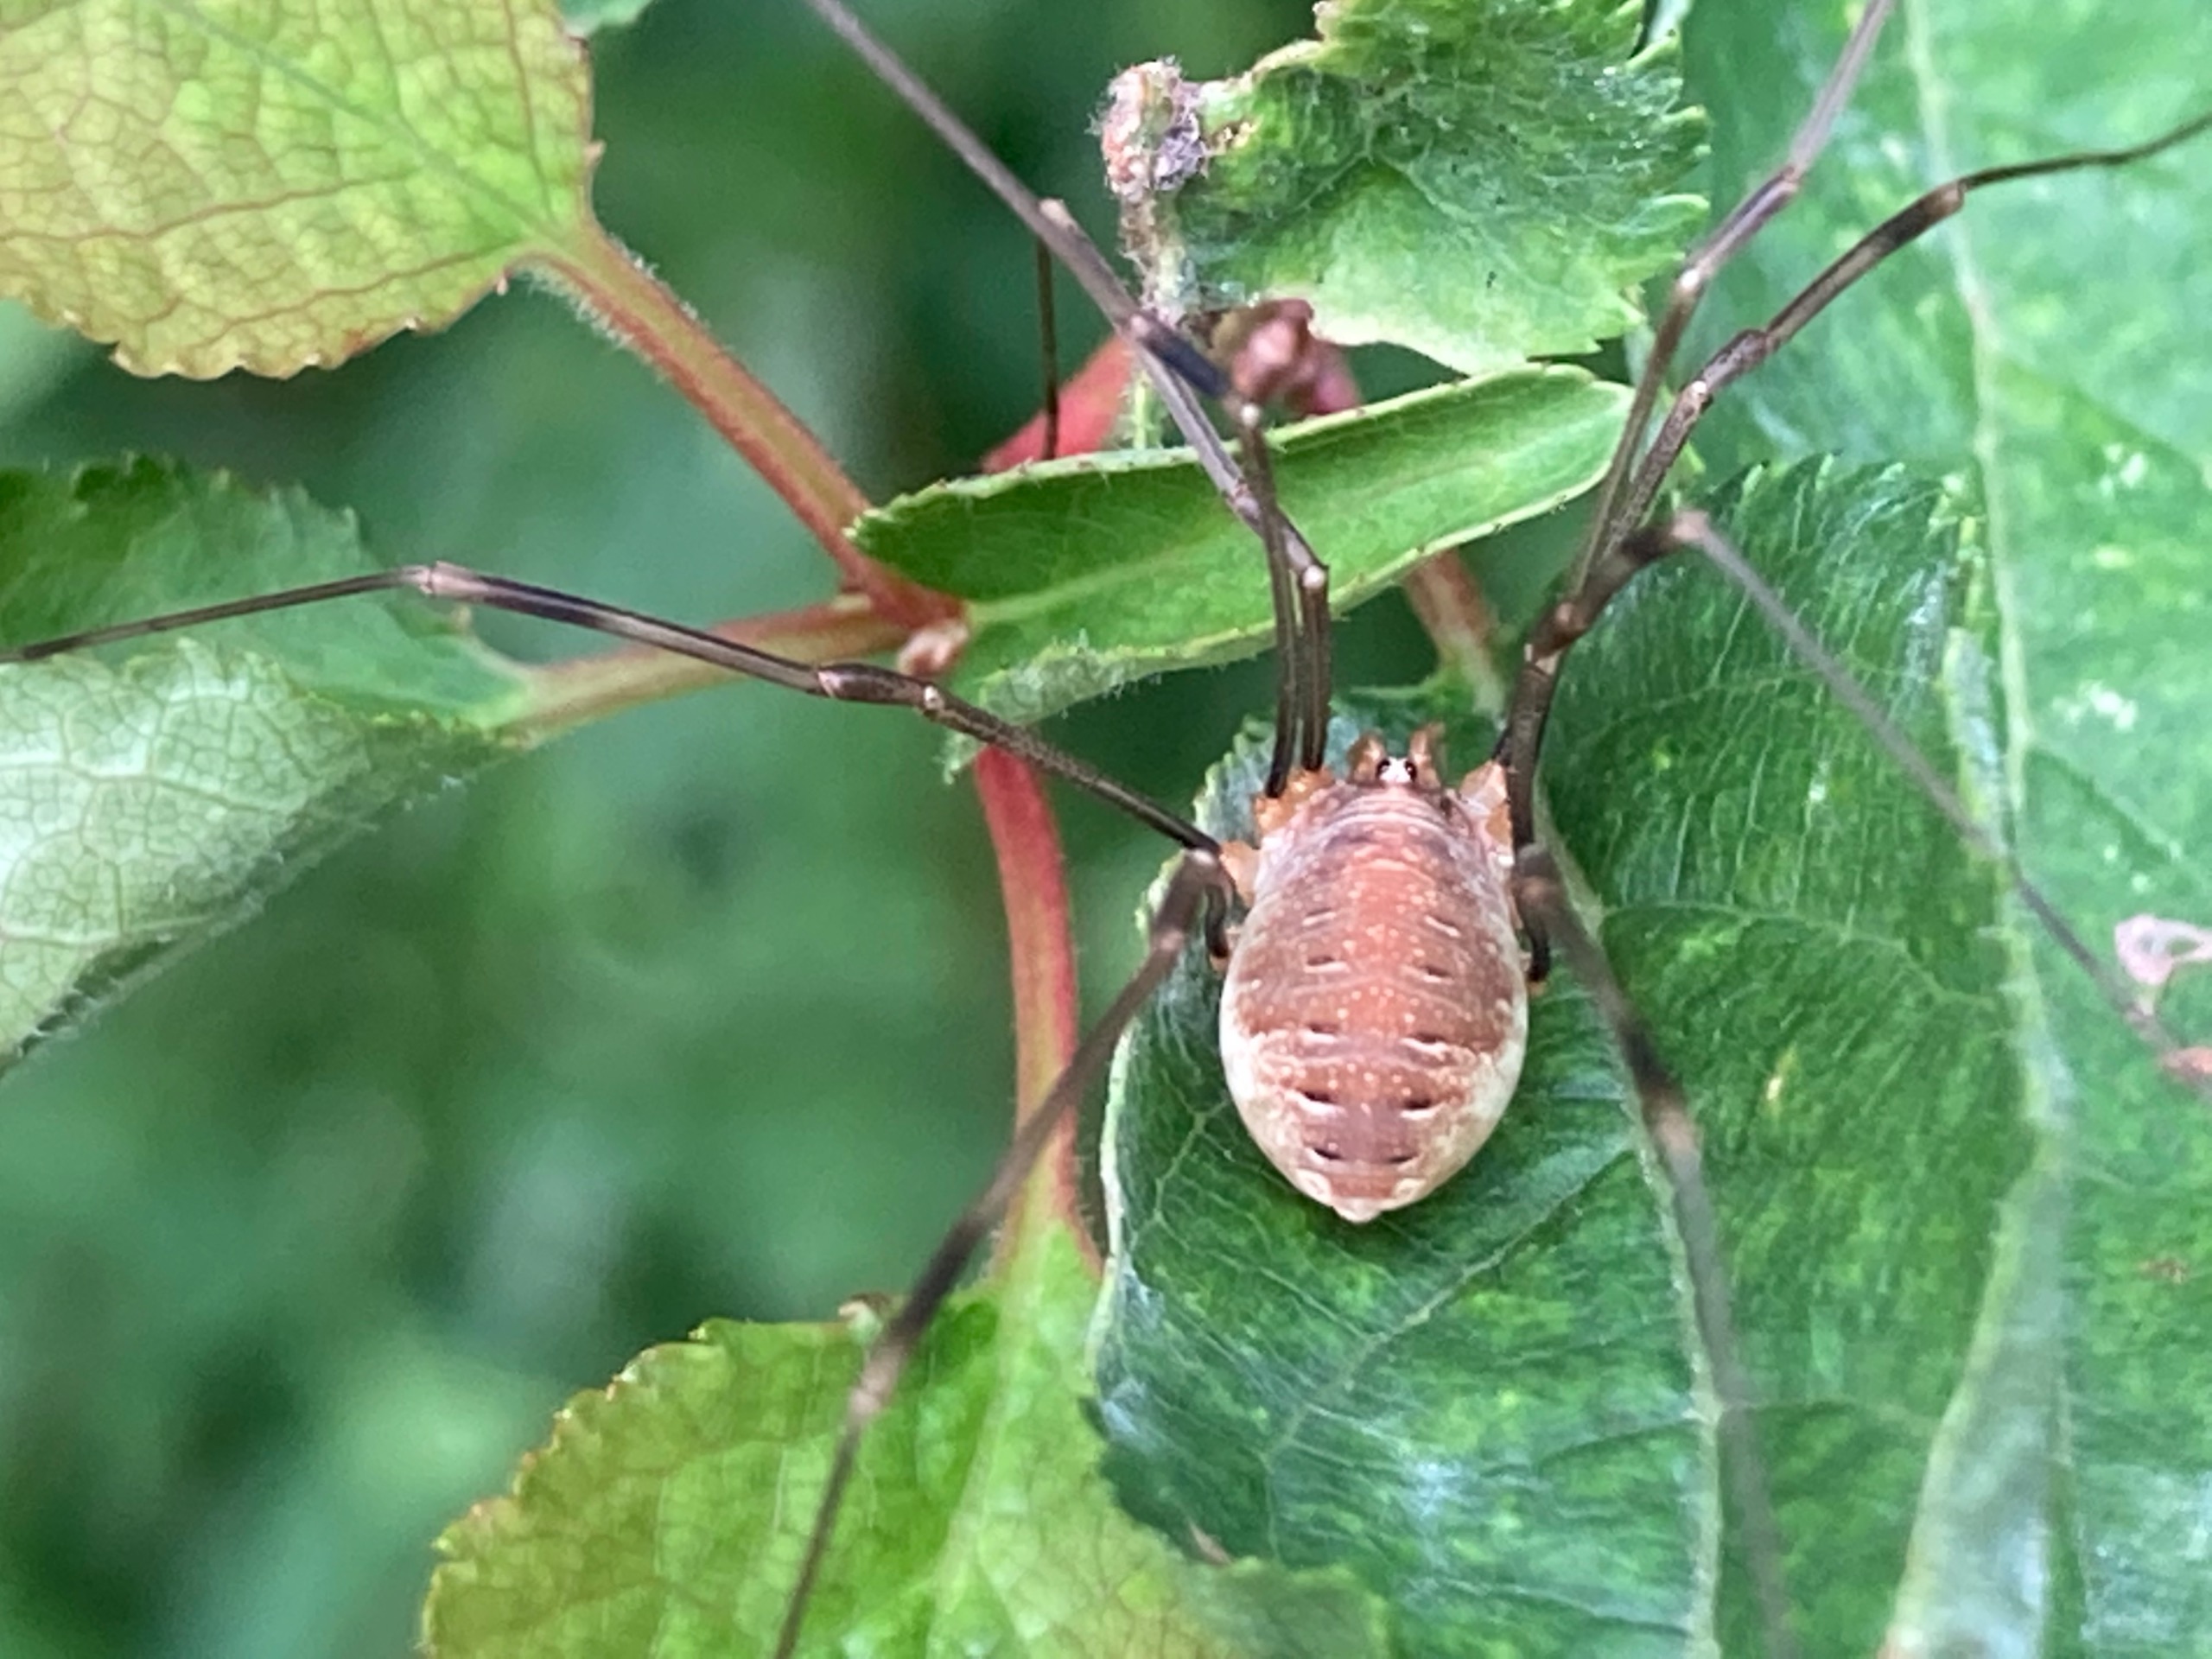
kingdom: Animalia
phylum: Arthropoda
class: Arachnida
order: Opiliones
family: Phalangiidae
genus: Opilio
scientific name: Opilio canestrinii
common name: Orange vægmejer
